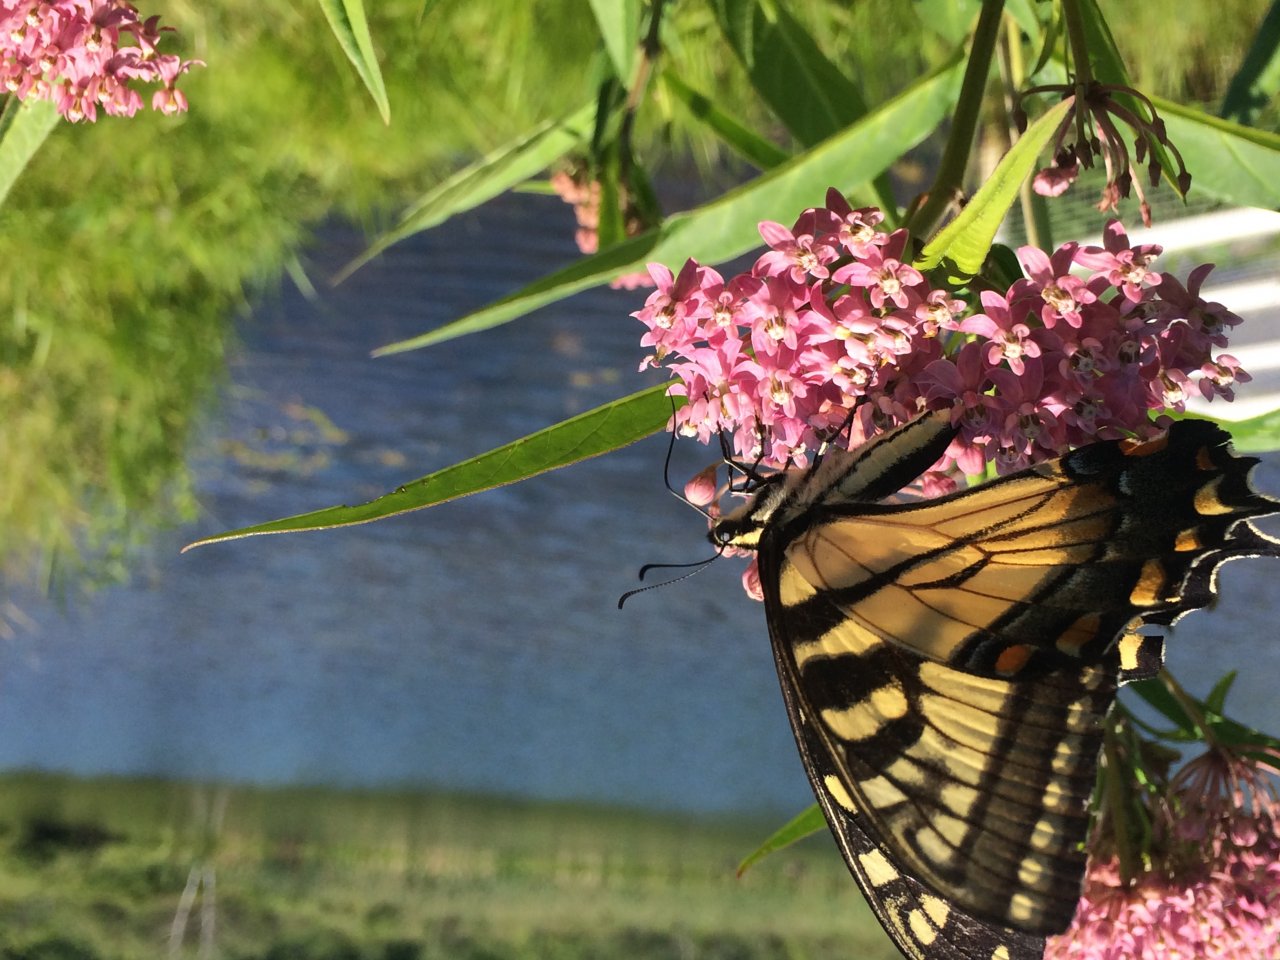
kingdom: Animalia
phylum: Arthropoda
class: Insecta
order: Lepidoptera
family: Papilionidae
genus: Papilio
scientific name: Papilio
